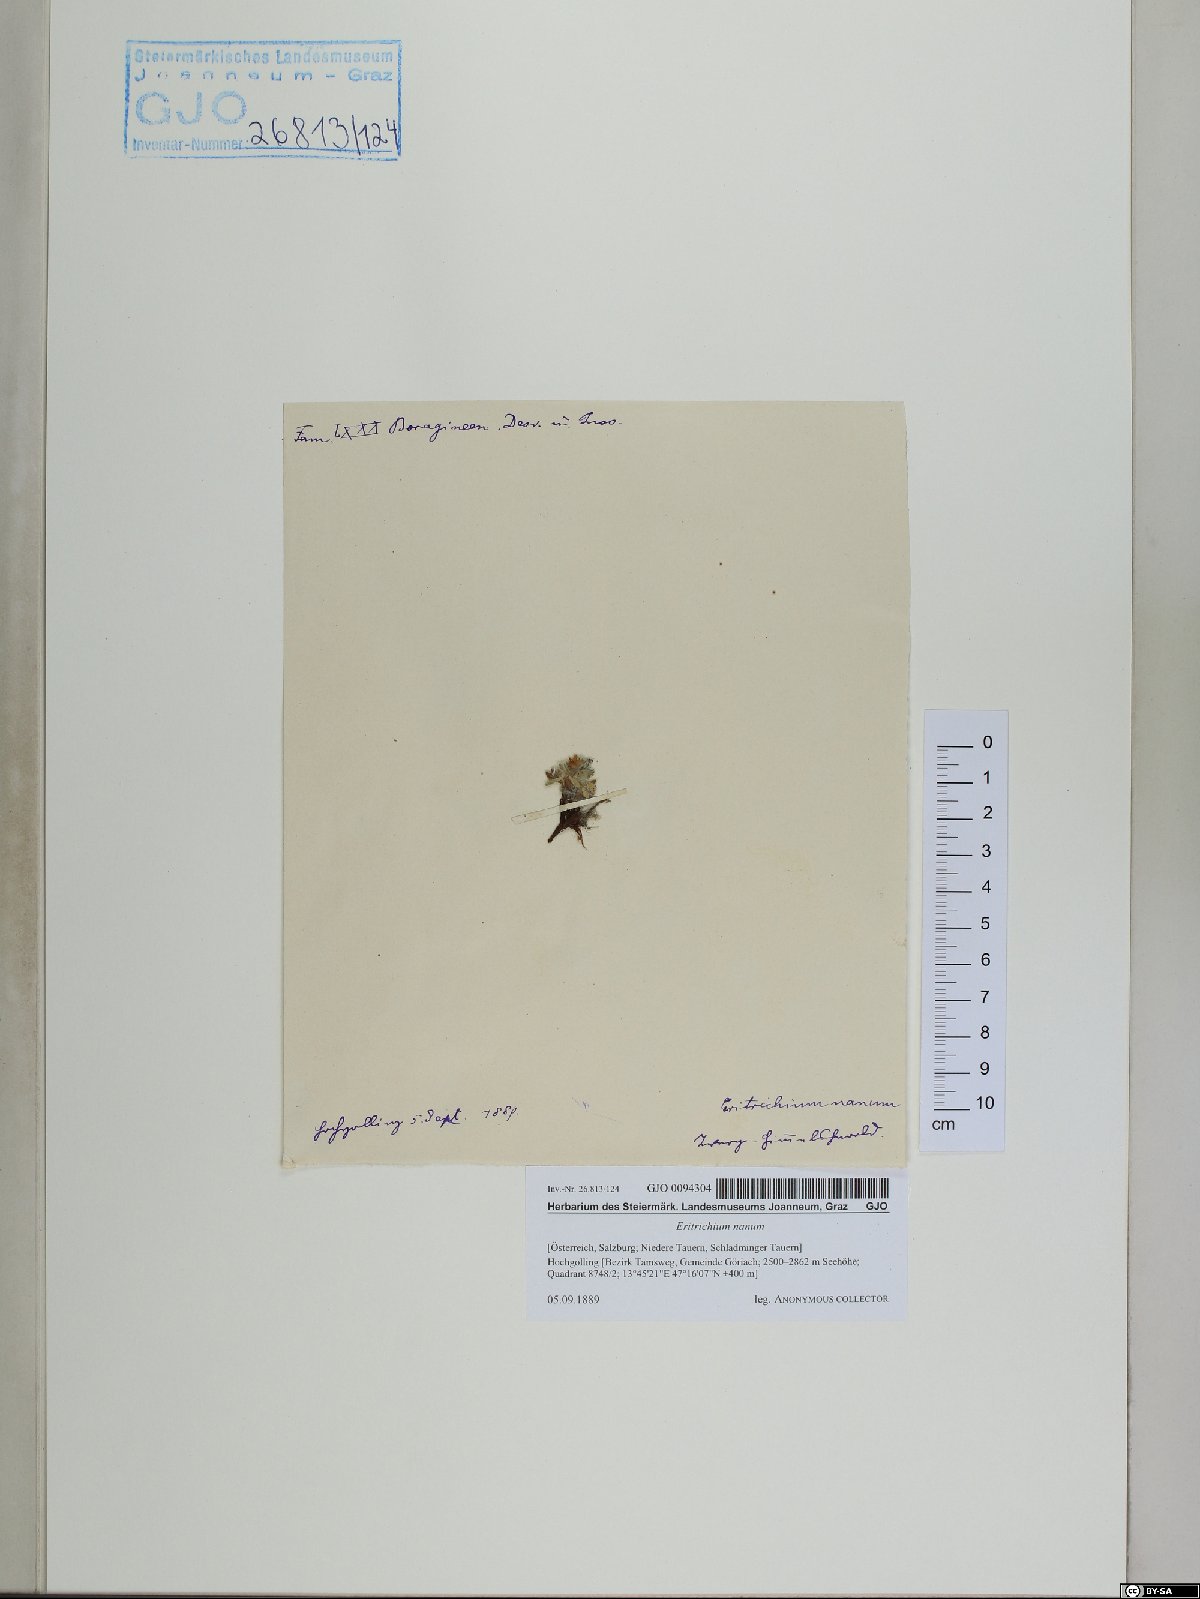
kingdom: Plantae
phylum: Tracheophyta
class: Magnoliopsida
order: Boraginales
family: Boraginaceae
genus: Eritrichium
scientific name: Eritrichium nanum
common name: King-of-the-alps
